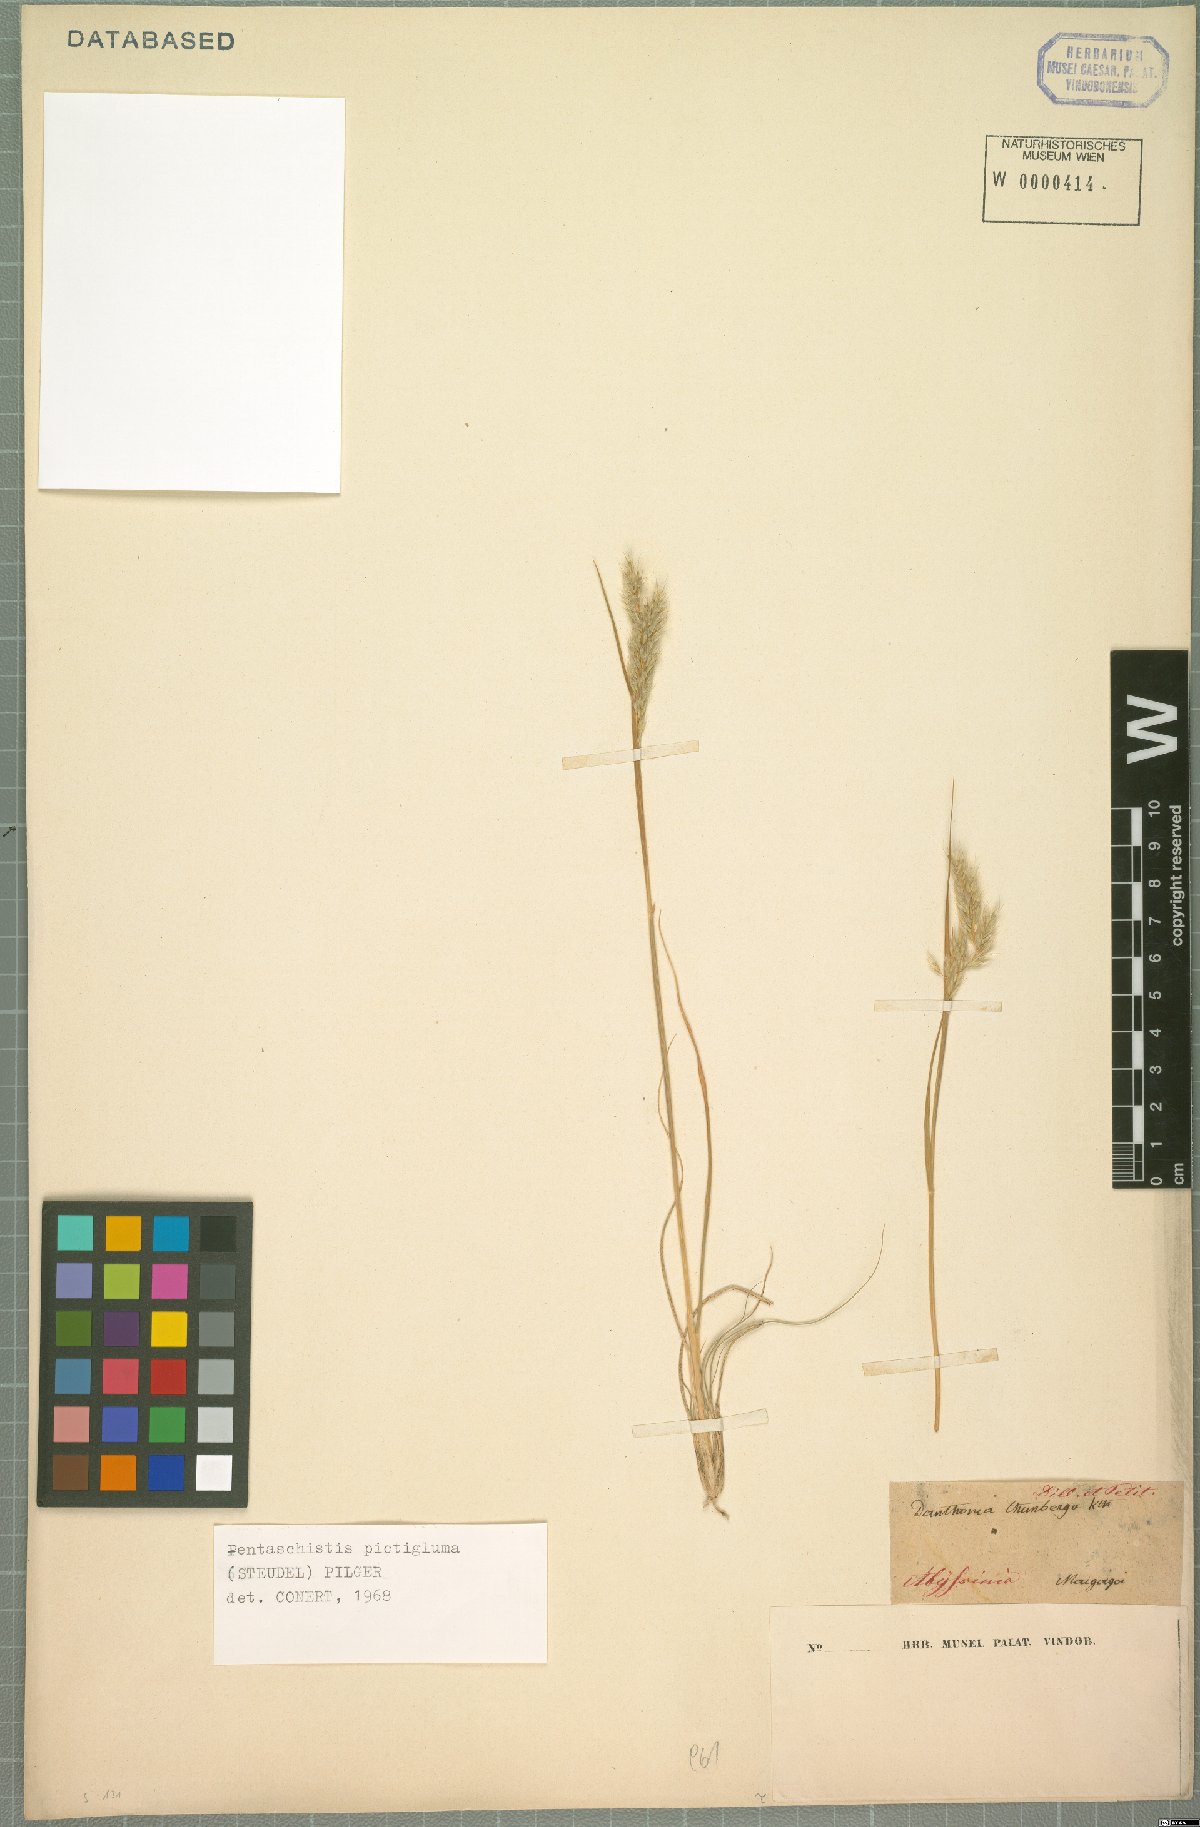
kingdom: Plantae
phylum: Tracheophyta
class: Liliopsida
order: Poales
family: Poaceae
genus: Pentameris
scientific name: Pentameris pictigluma
